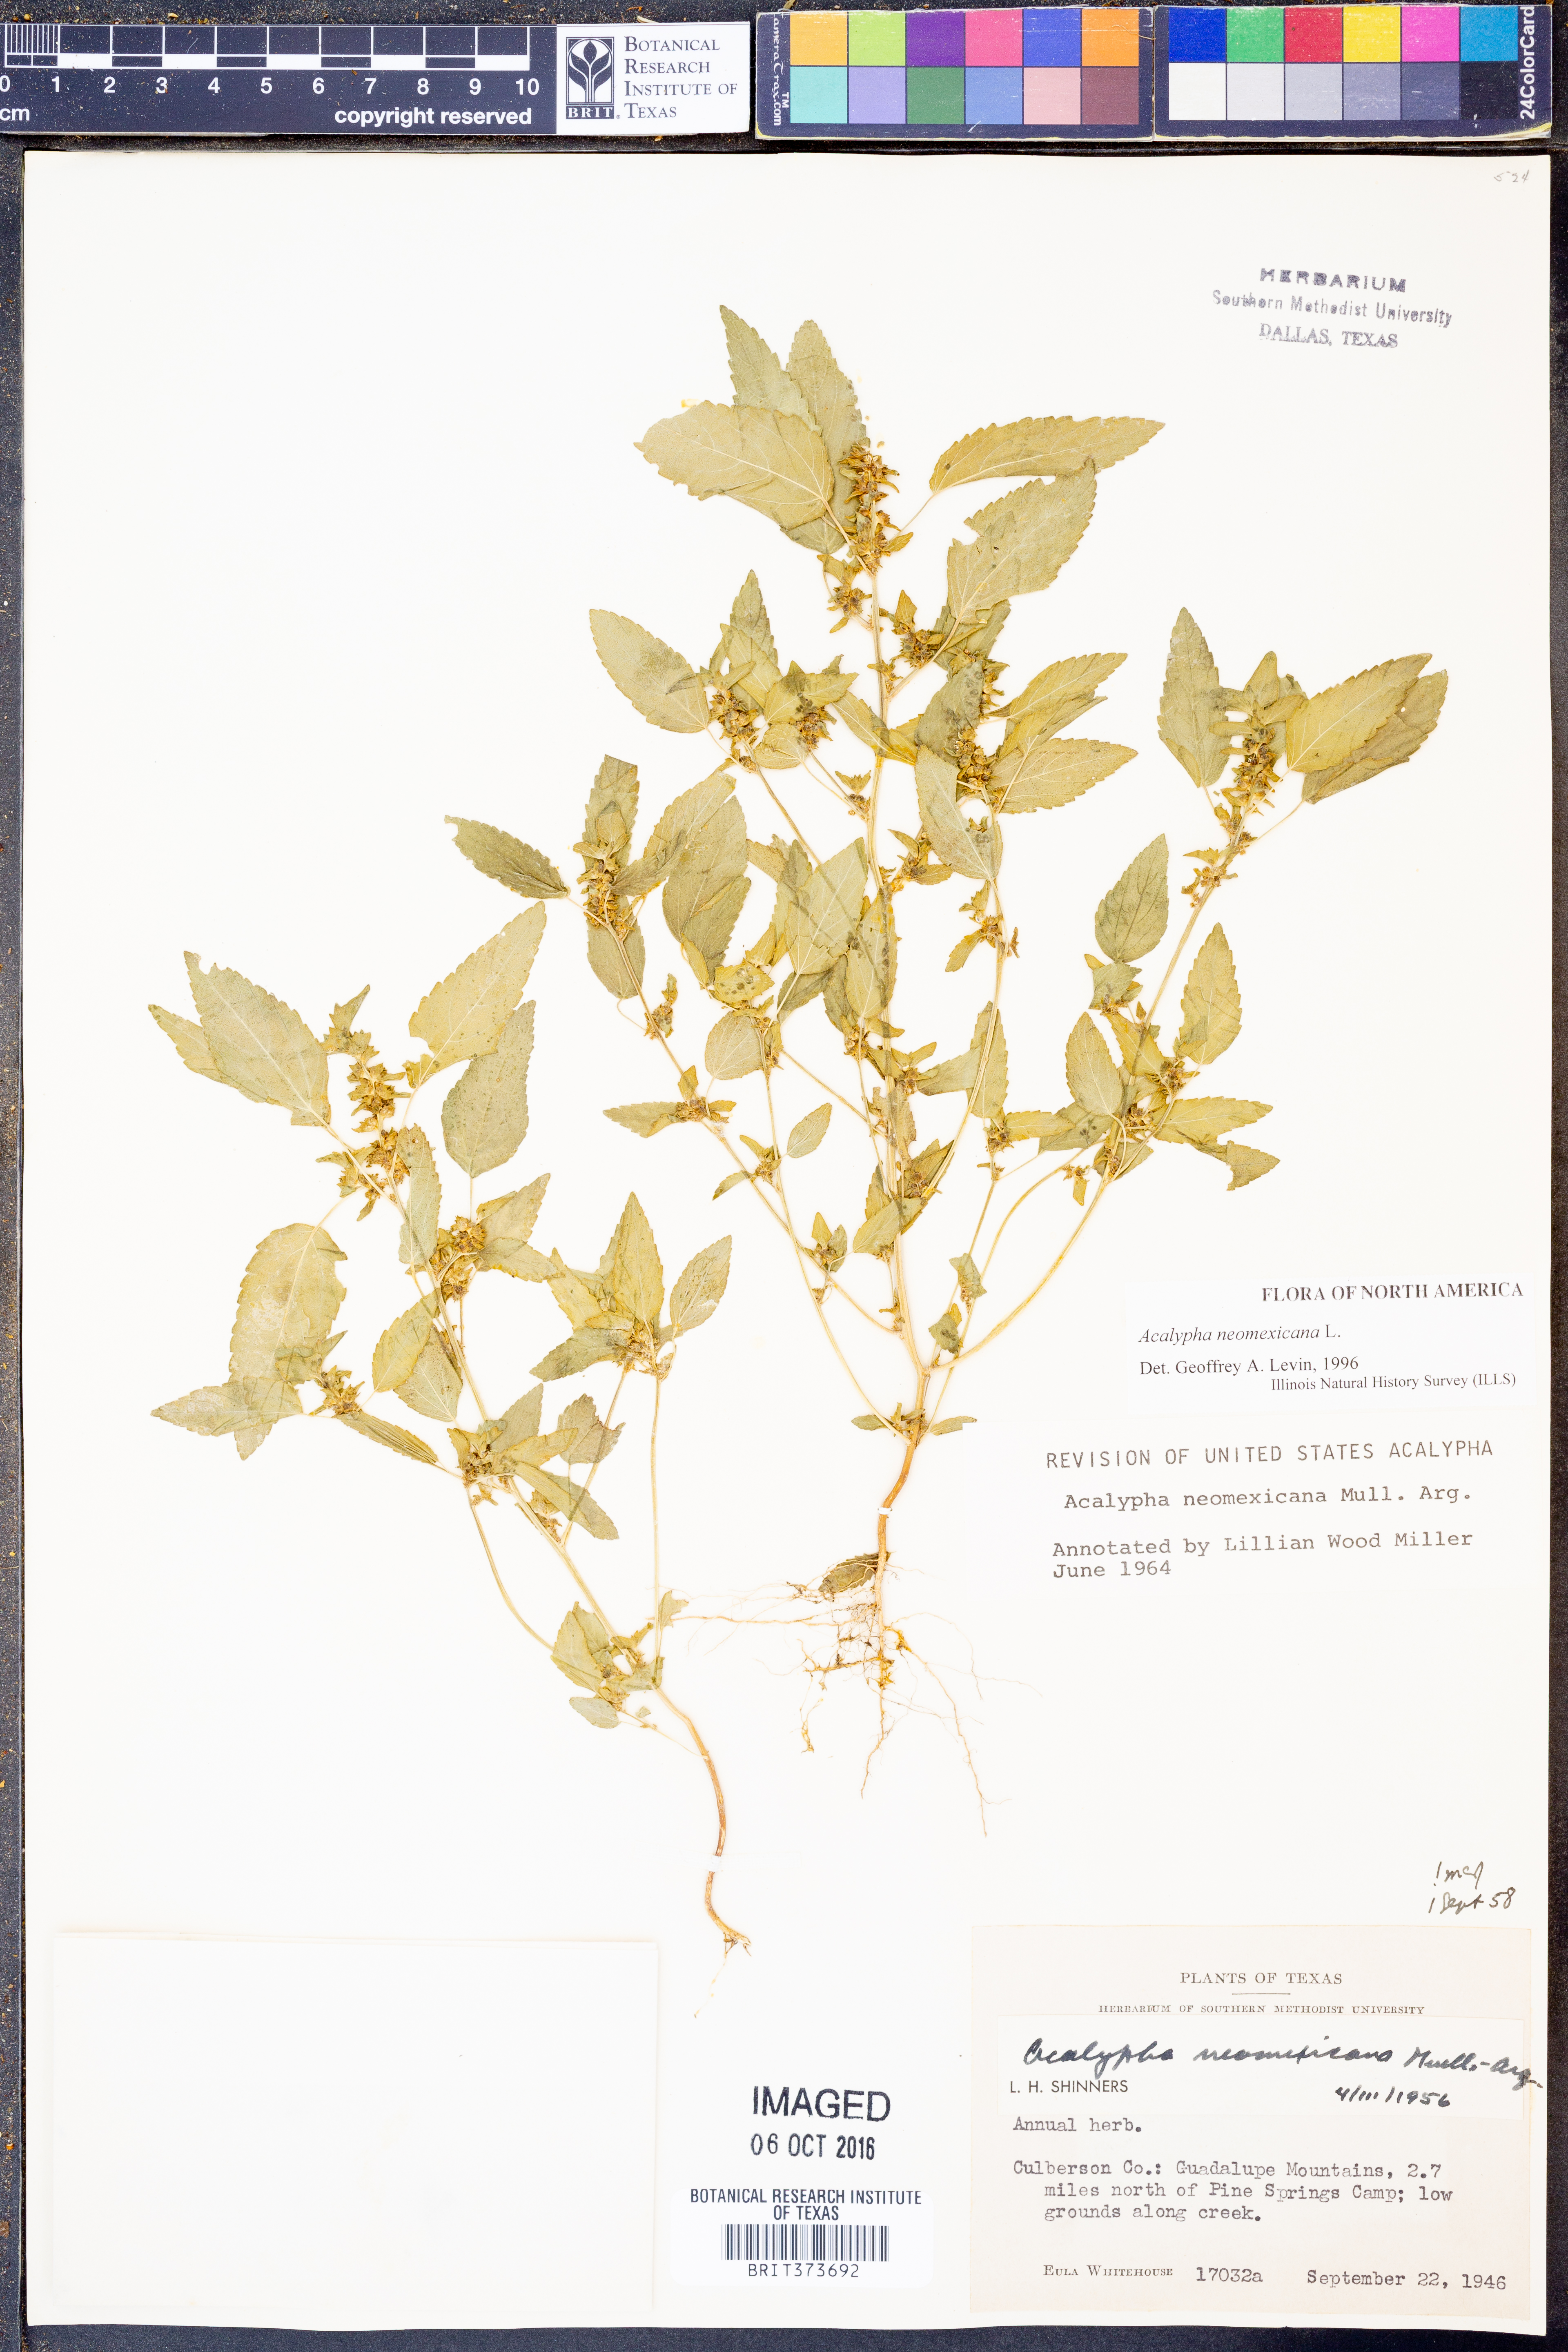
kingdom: Plantae
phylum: Tracheophyta
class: Magnoliopsida
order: Malpighiales
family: Euphorbiaceae
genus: Acalypha
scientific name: Acalypha neomexicana
